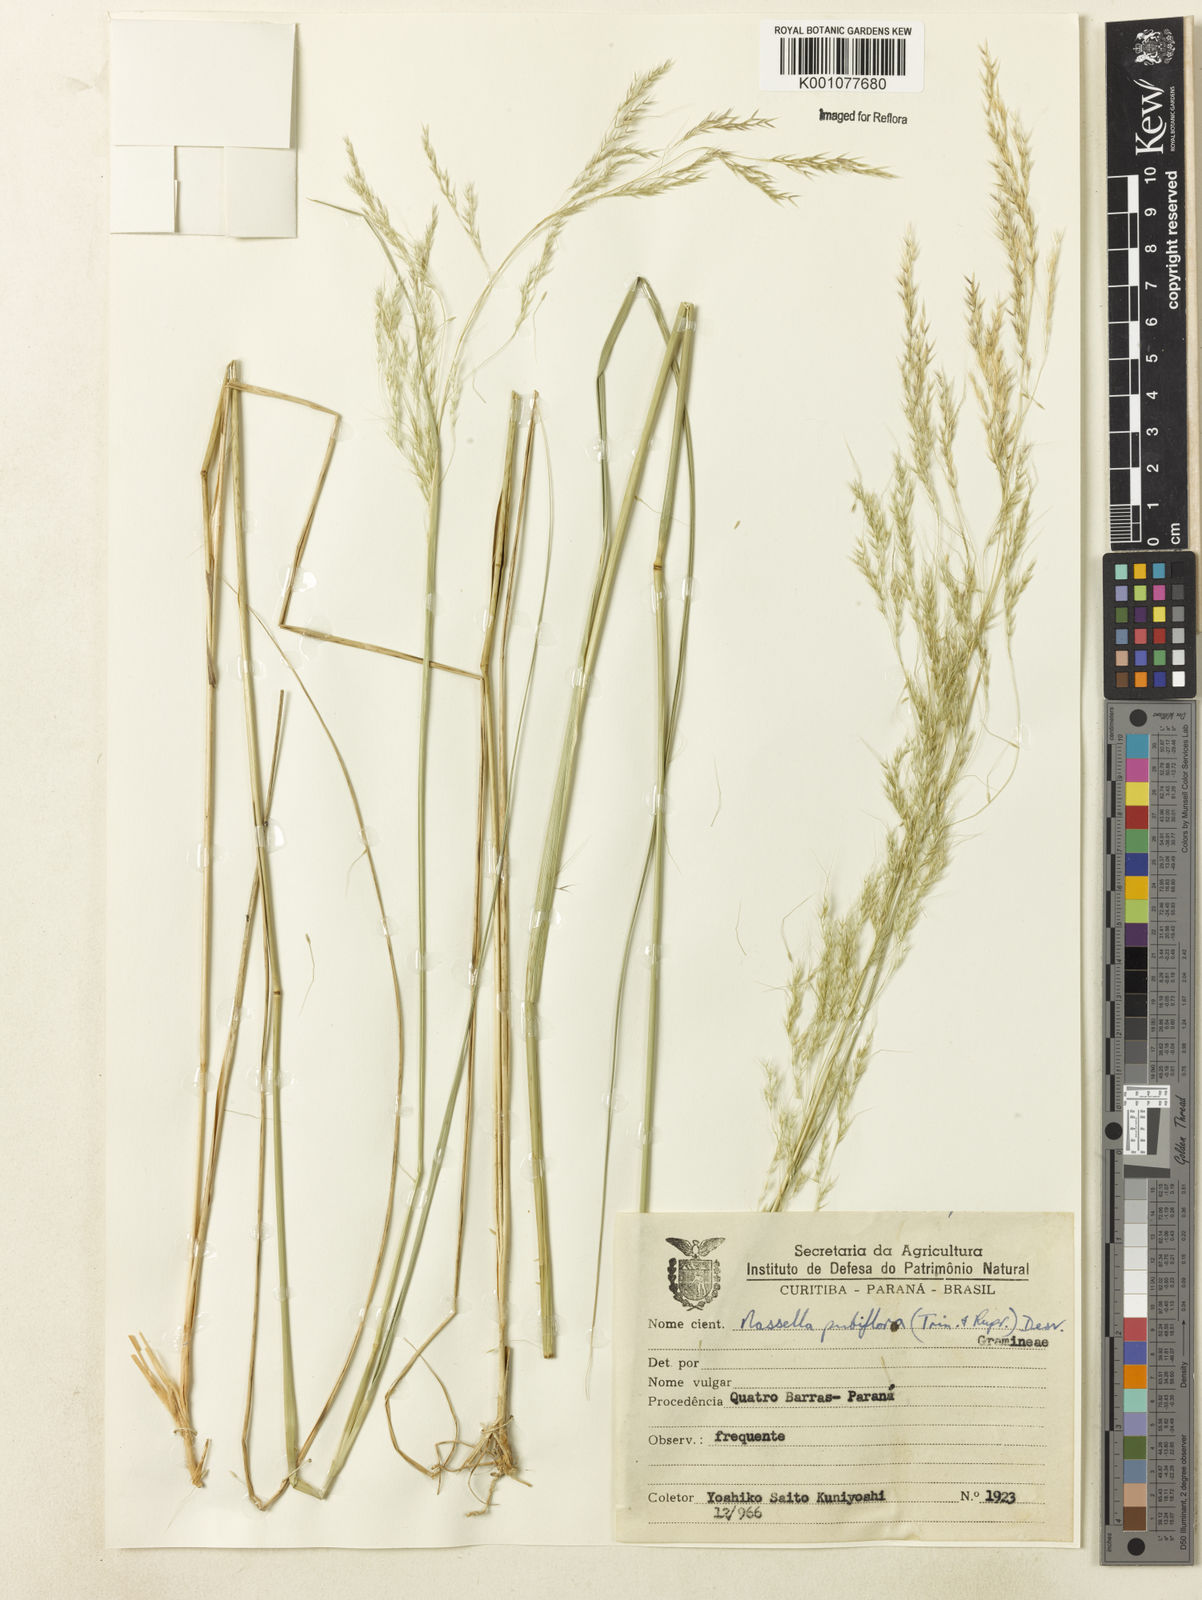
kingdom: Plantae
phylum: Tracheophyta
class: Liliopsida
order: Poales
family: Poaceae
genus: Jarava
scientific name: Jarava filifolia
